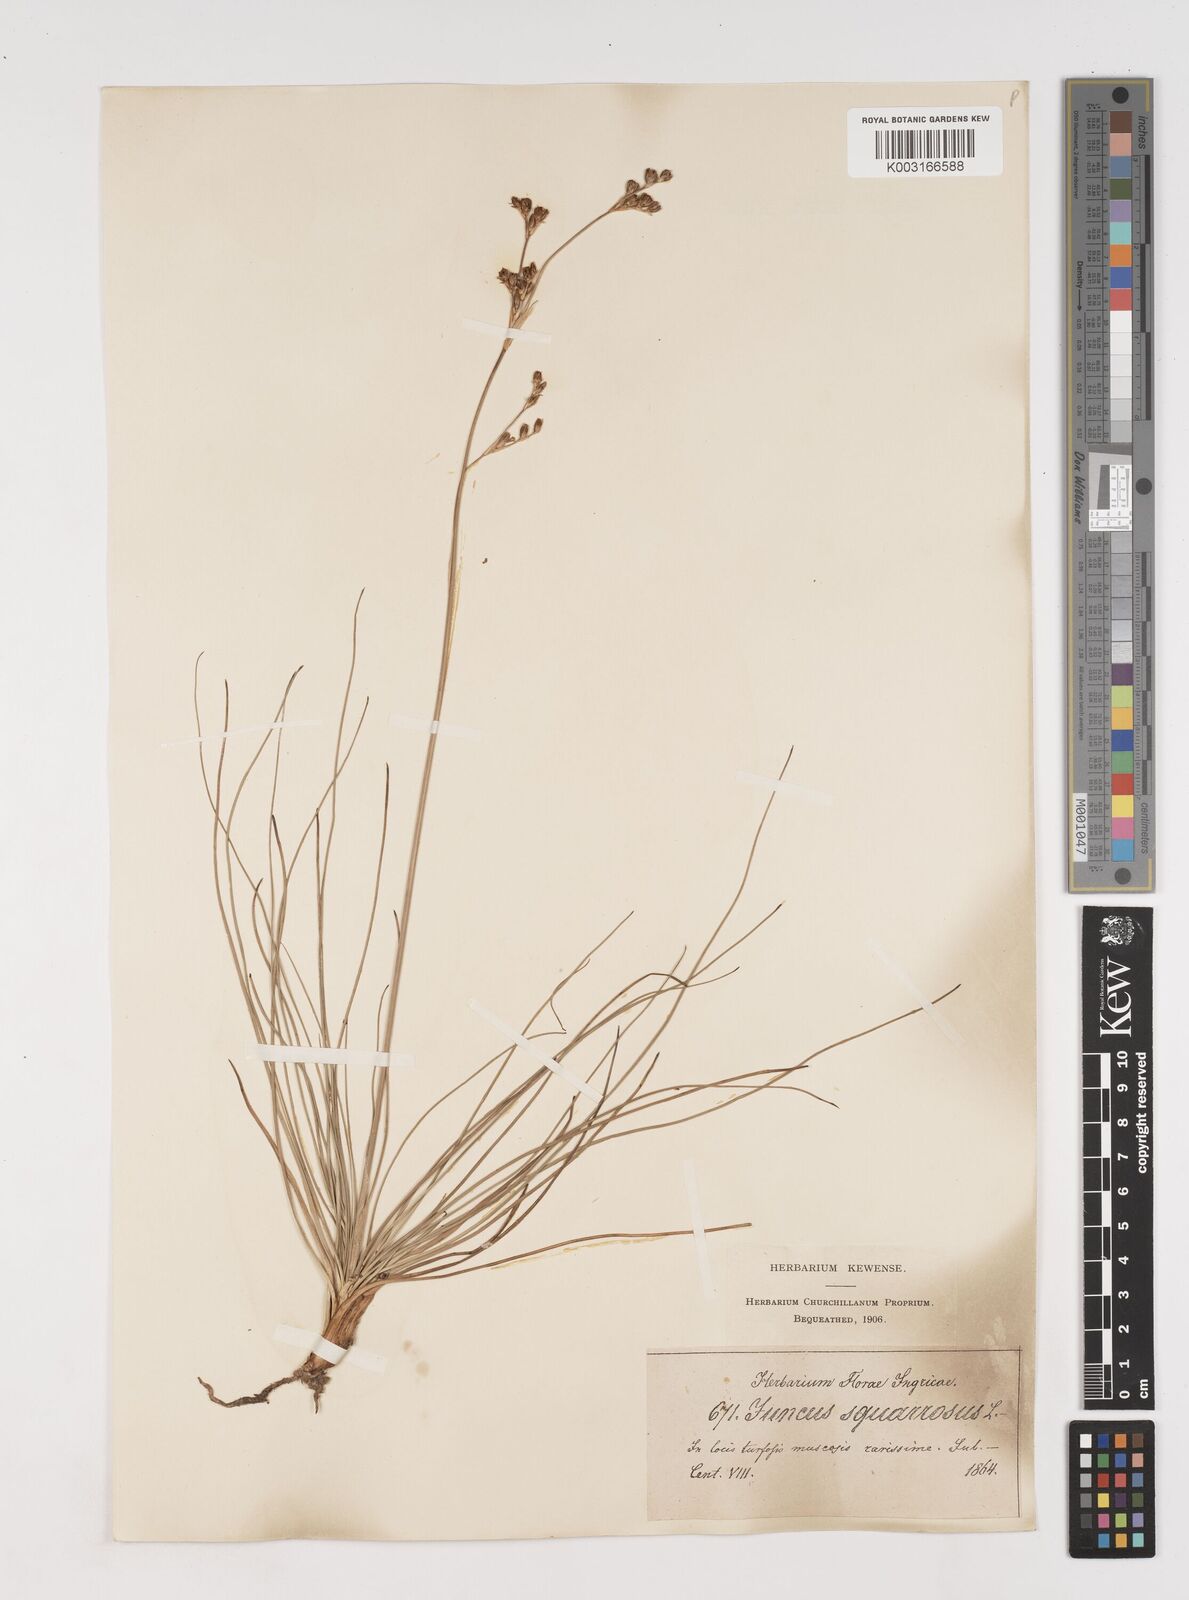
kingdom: Plantae
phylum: Tracheophyta
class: Liliopsida
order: Poales
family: Juncaceae
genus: Juncus
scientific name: Juncus squarrosus
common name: Heath rush
